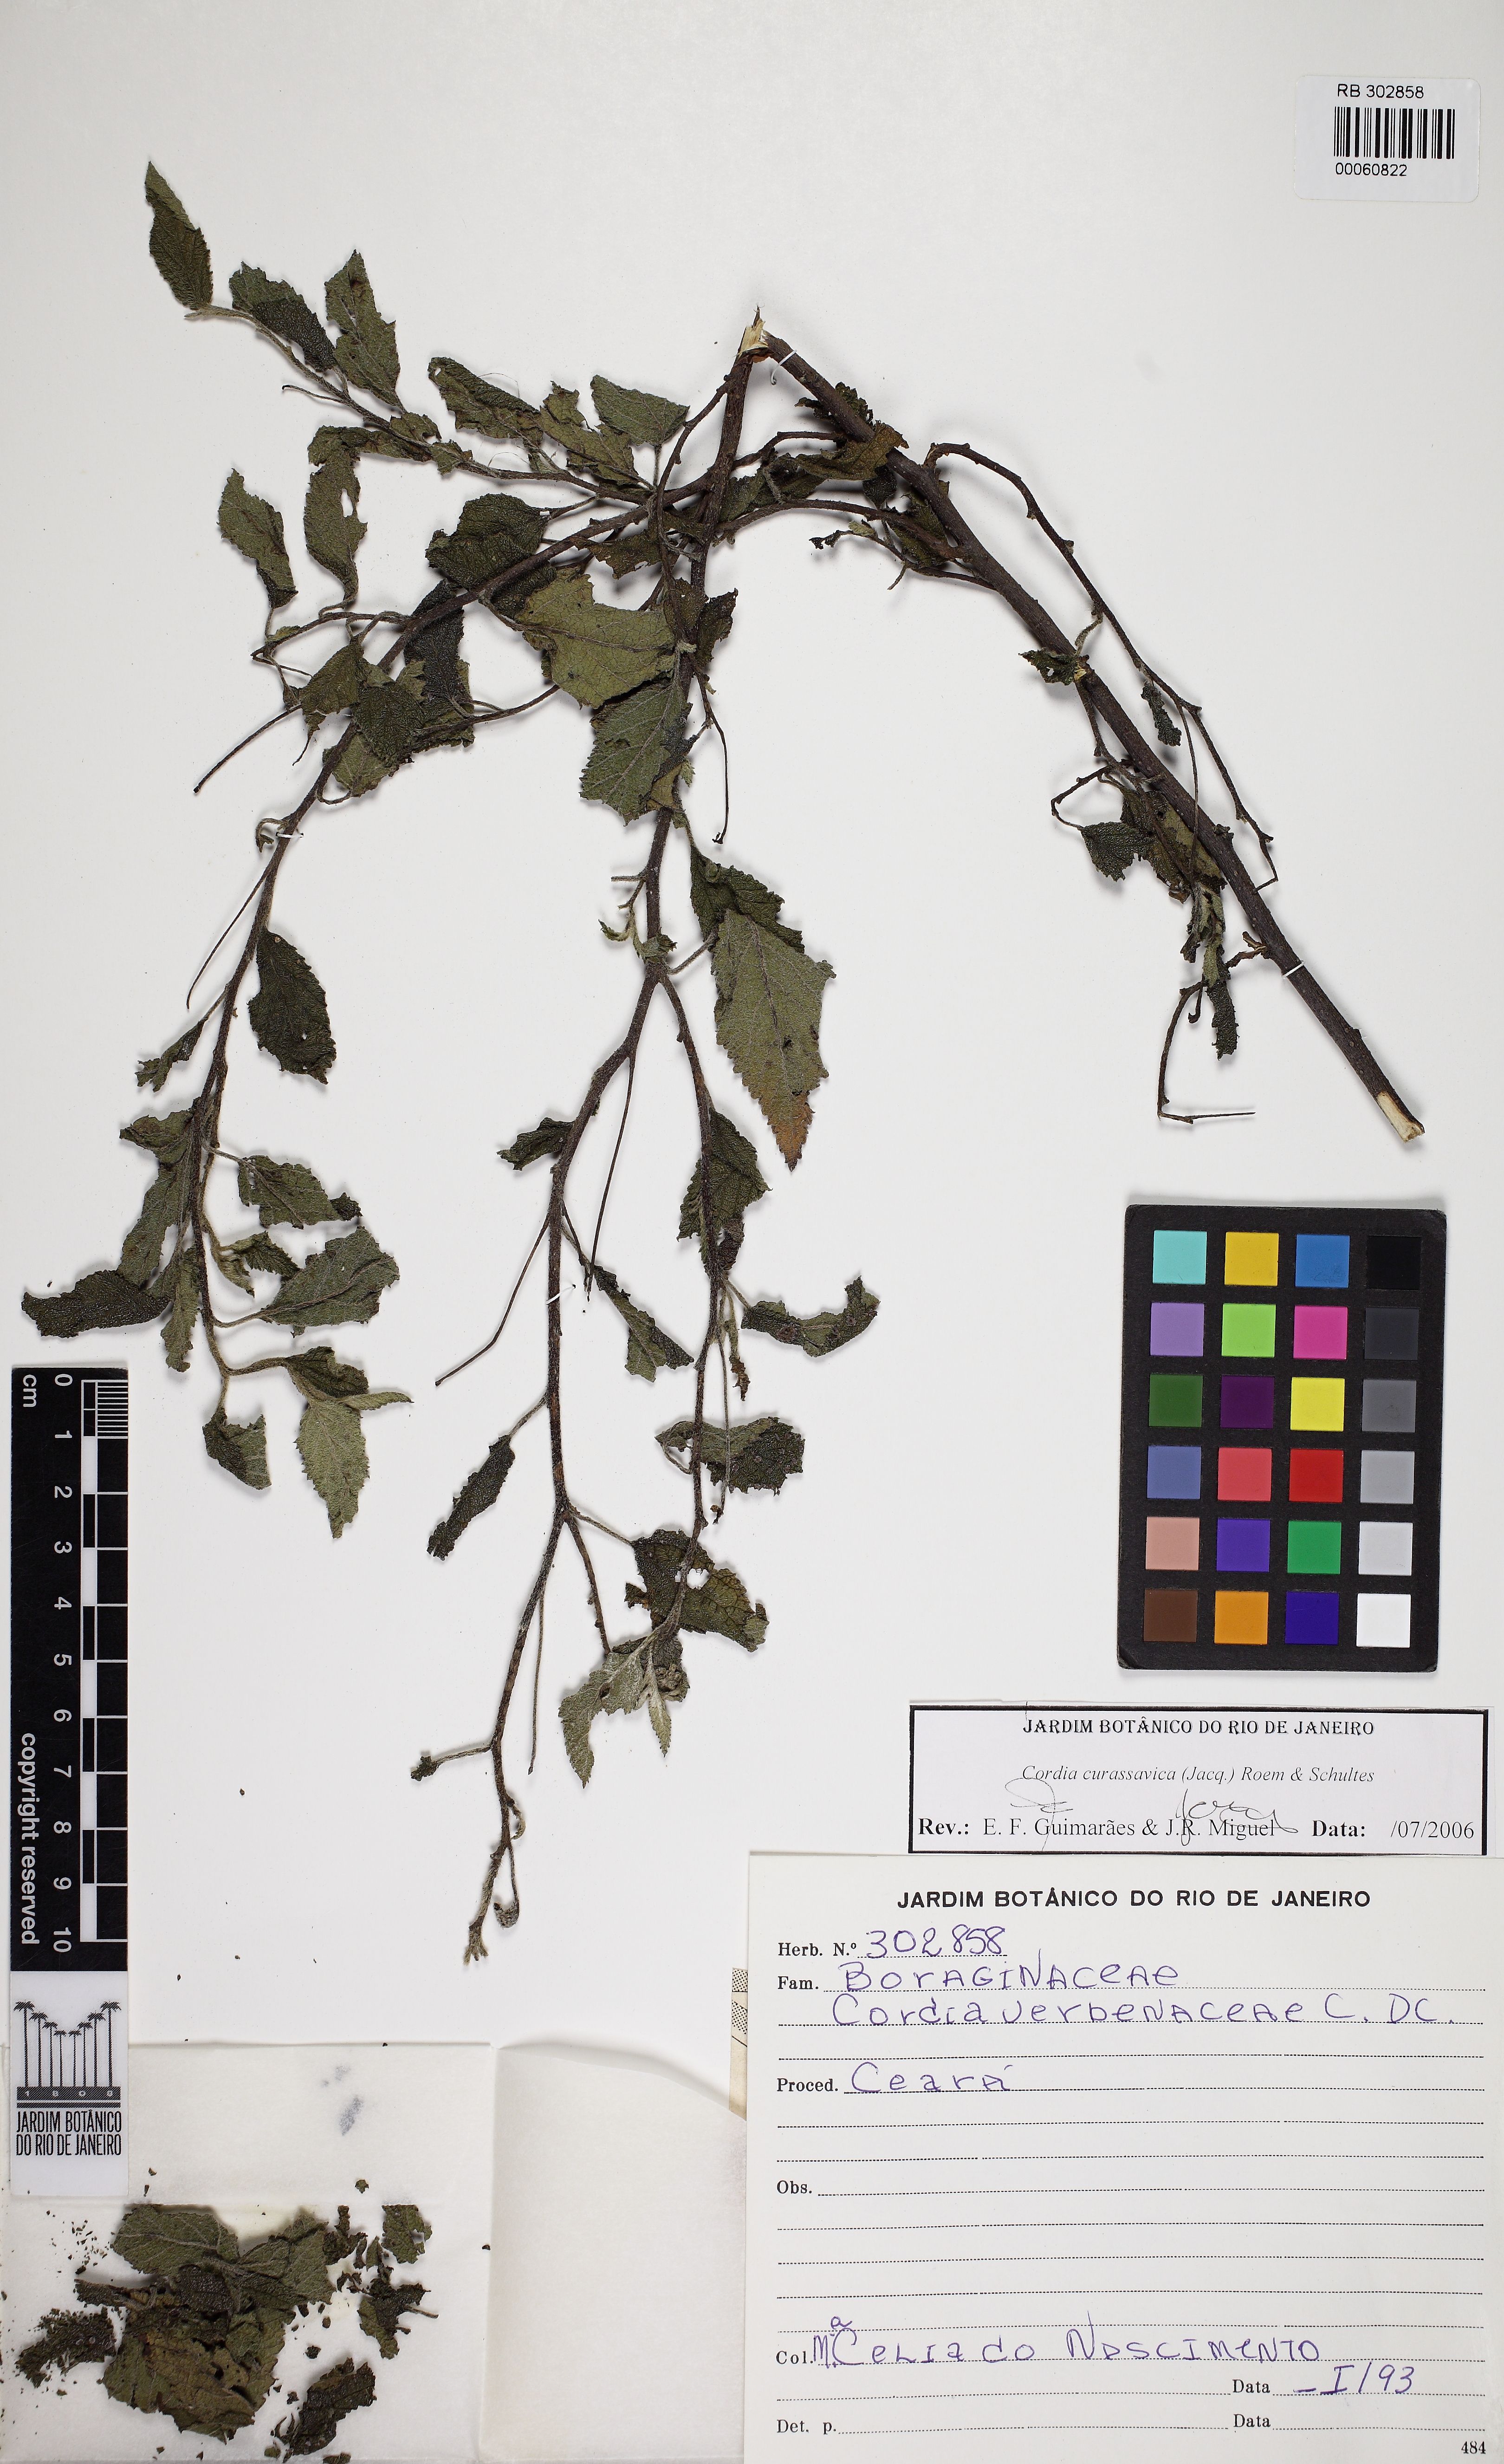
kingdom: Plantae
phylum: Tracheophyta
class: Magnoliopsida
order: Boraginales
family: Cordiaceae
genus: Varronia
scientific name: Varronia curassavica
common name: Black sage
